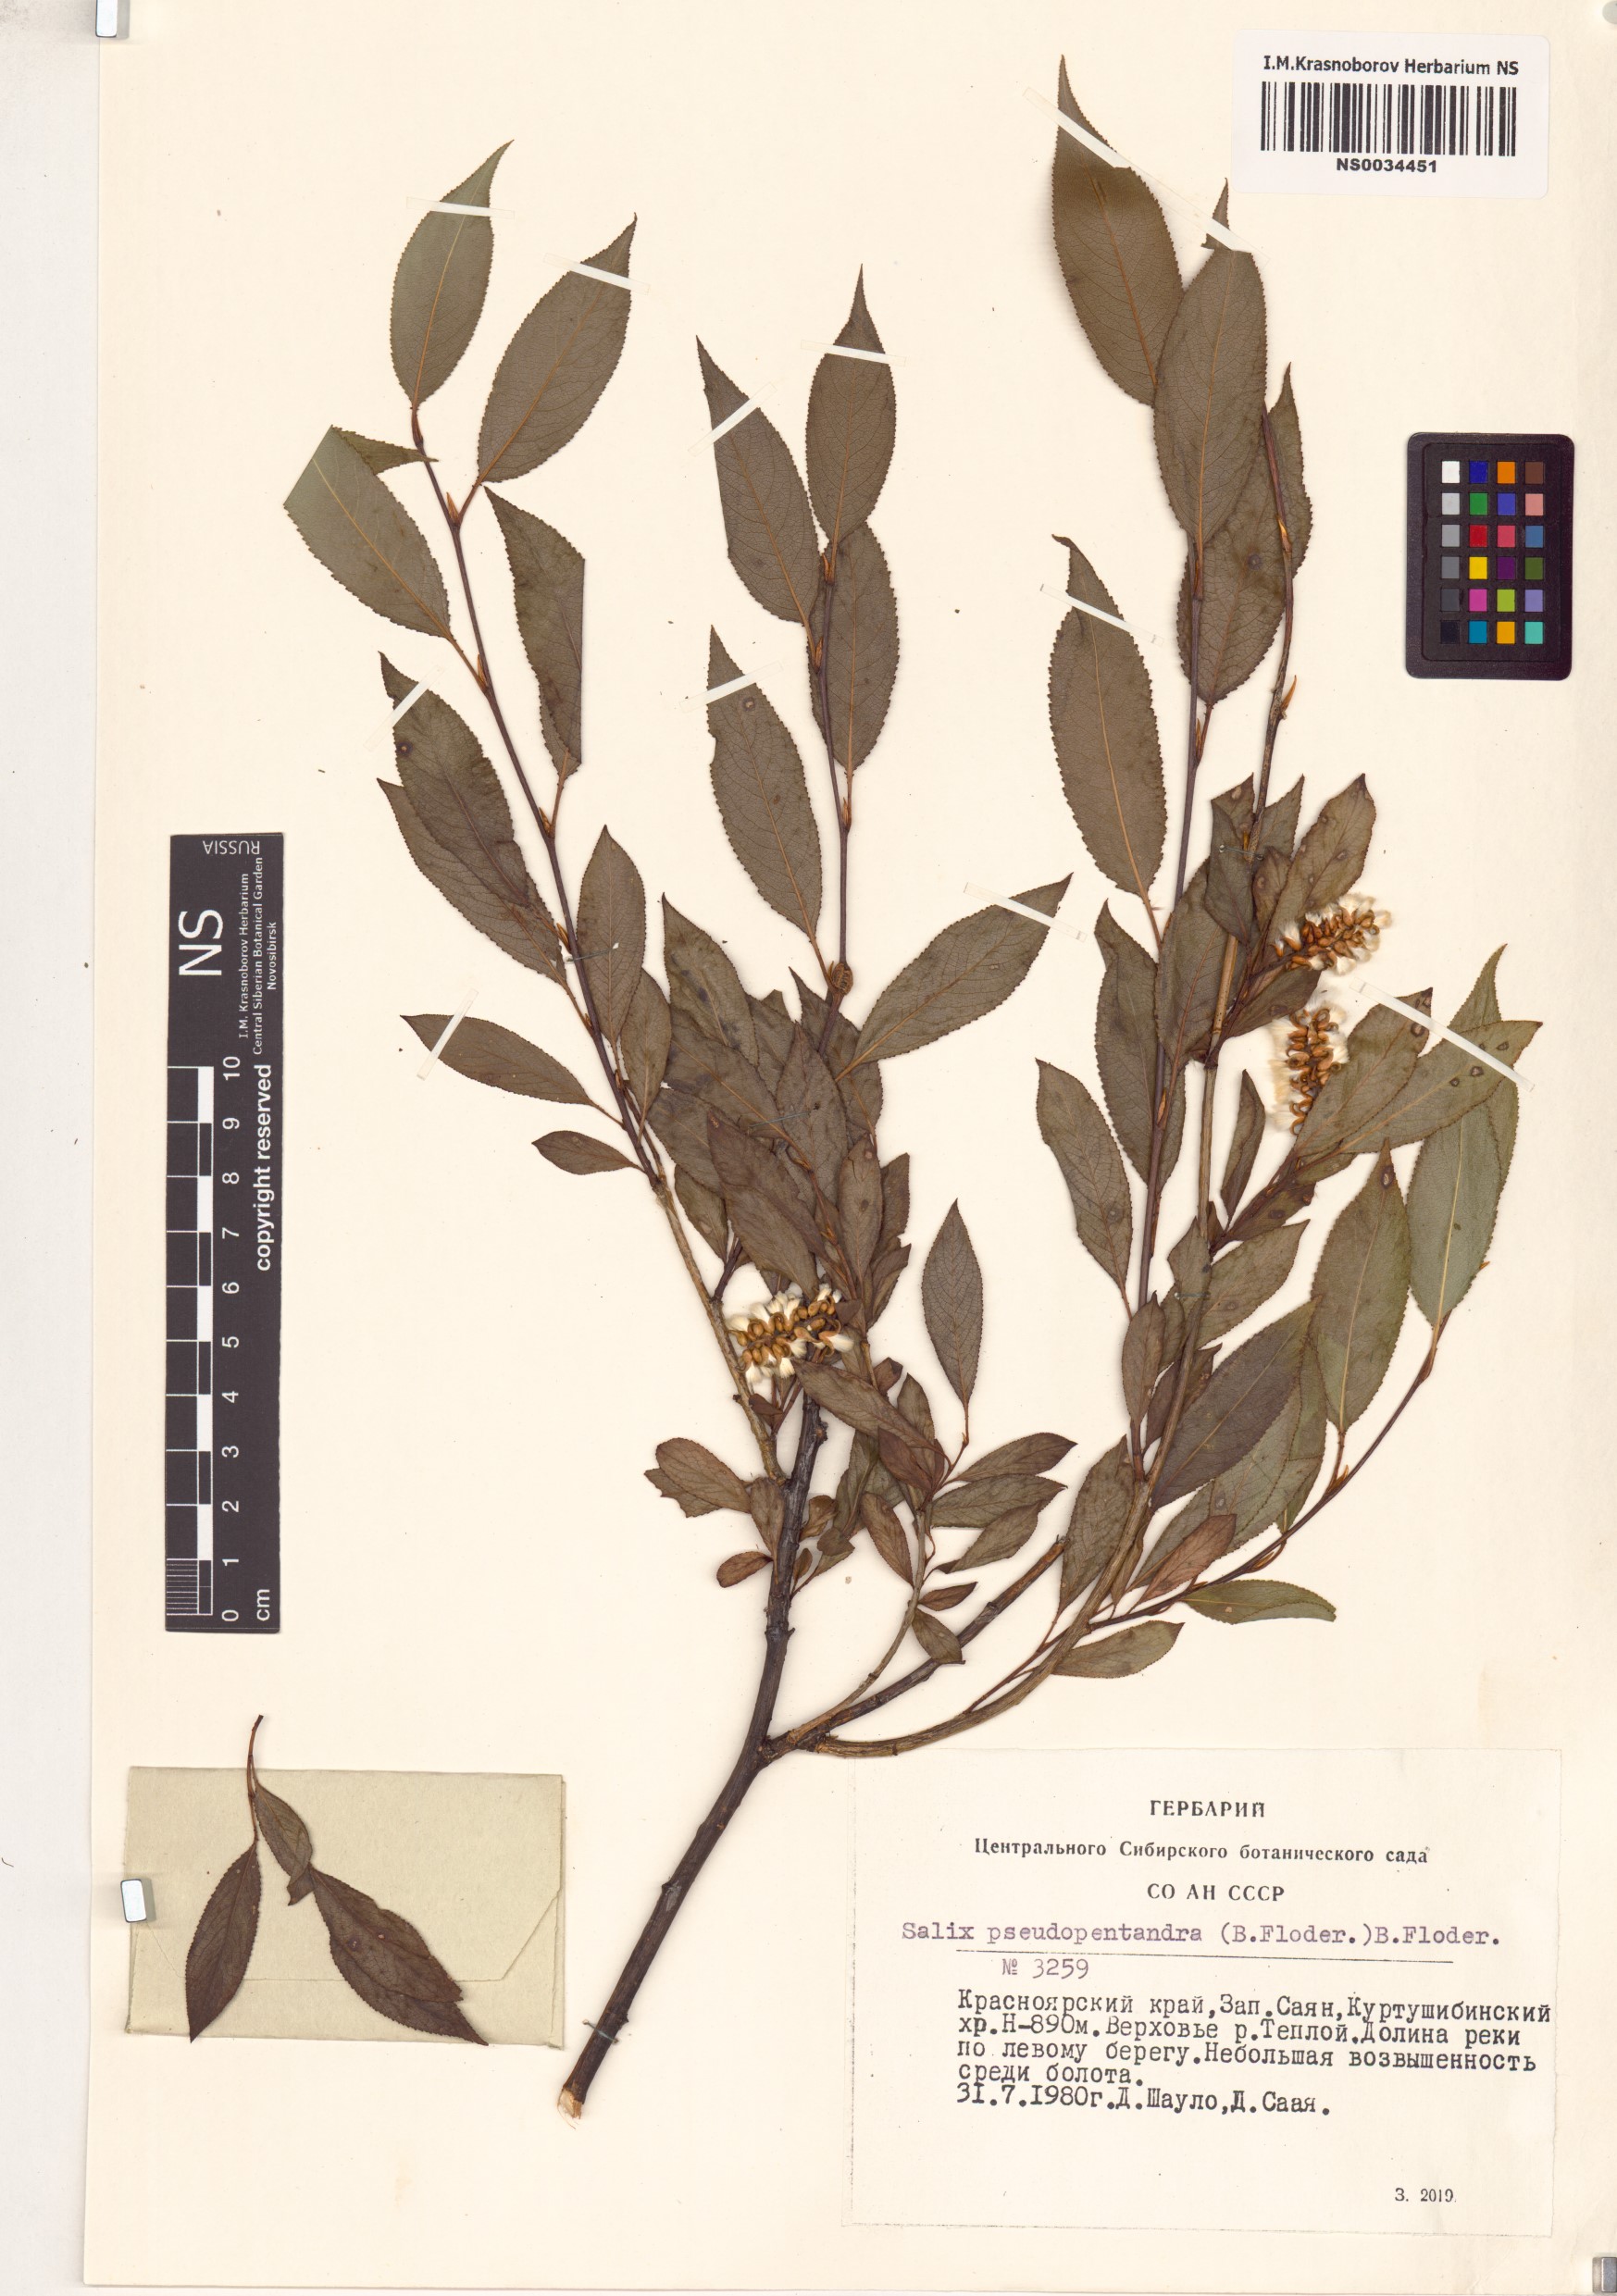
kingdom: Plantae
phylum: Tracheophyta
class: Magnoliopsida
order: Malpighiales
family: Salicaceae
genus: Salix
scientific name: Salix pseudopentandra
